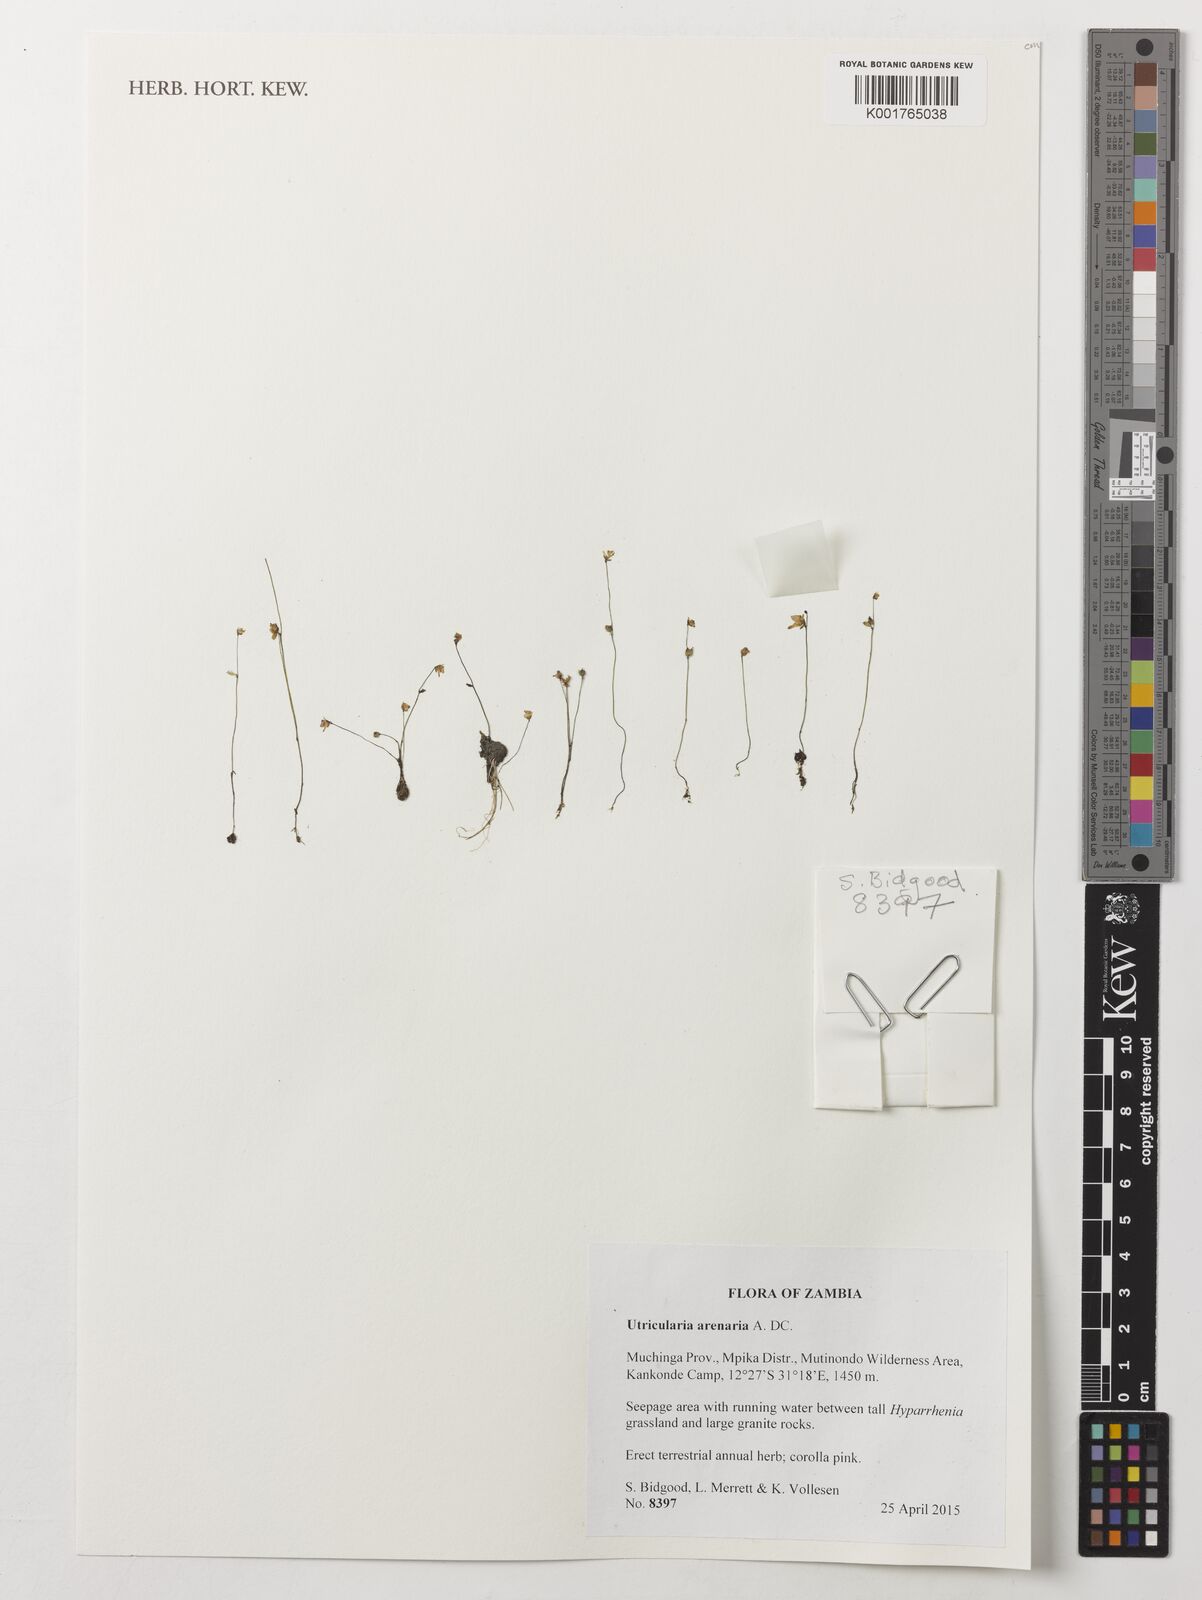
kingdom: Plantae
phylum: Tracheophyta
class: Magnoliopsida
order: Lamiales
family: Lentibulariaceae
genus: Utricularia
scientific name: Utricularia arenaria
